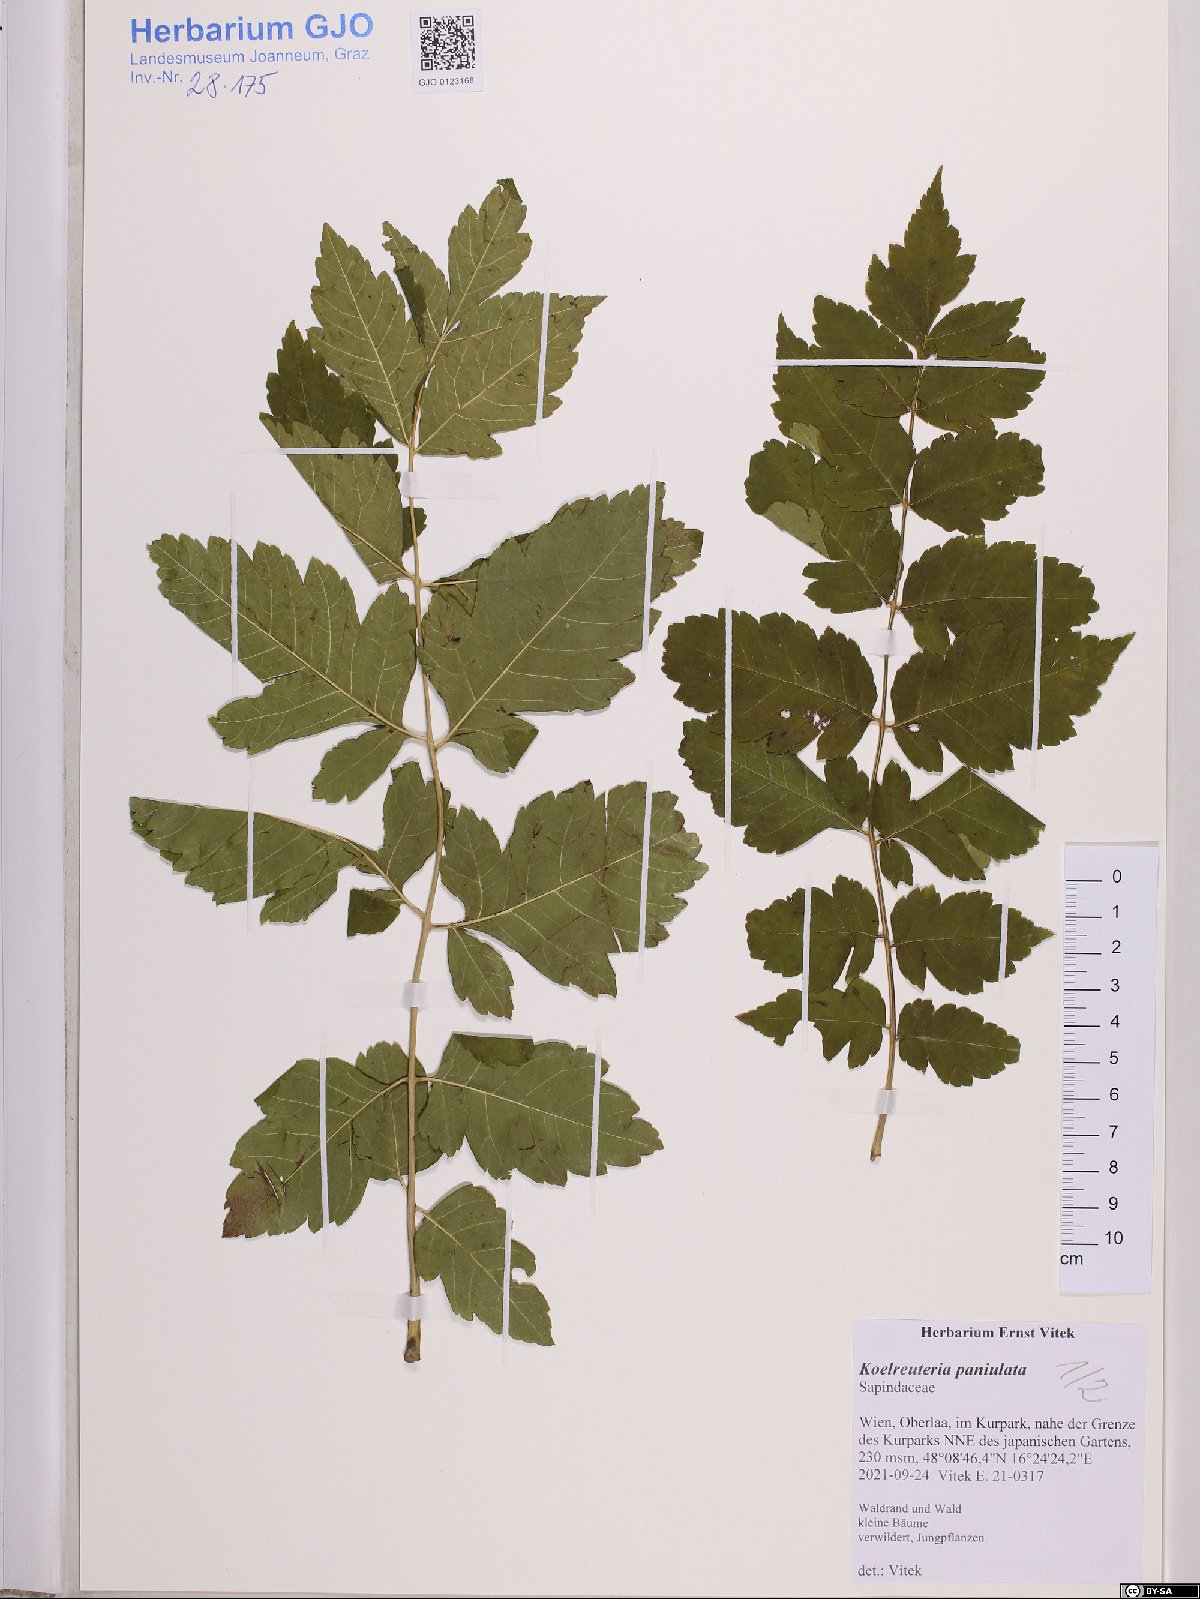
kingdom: Plantae
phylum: Tracheophyta
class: Magnoliopsida
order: Sapindales
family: Sapindaceae
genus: Koelreuteria
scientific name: Koelreuteria paniculata
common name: Pride-of-india
